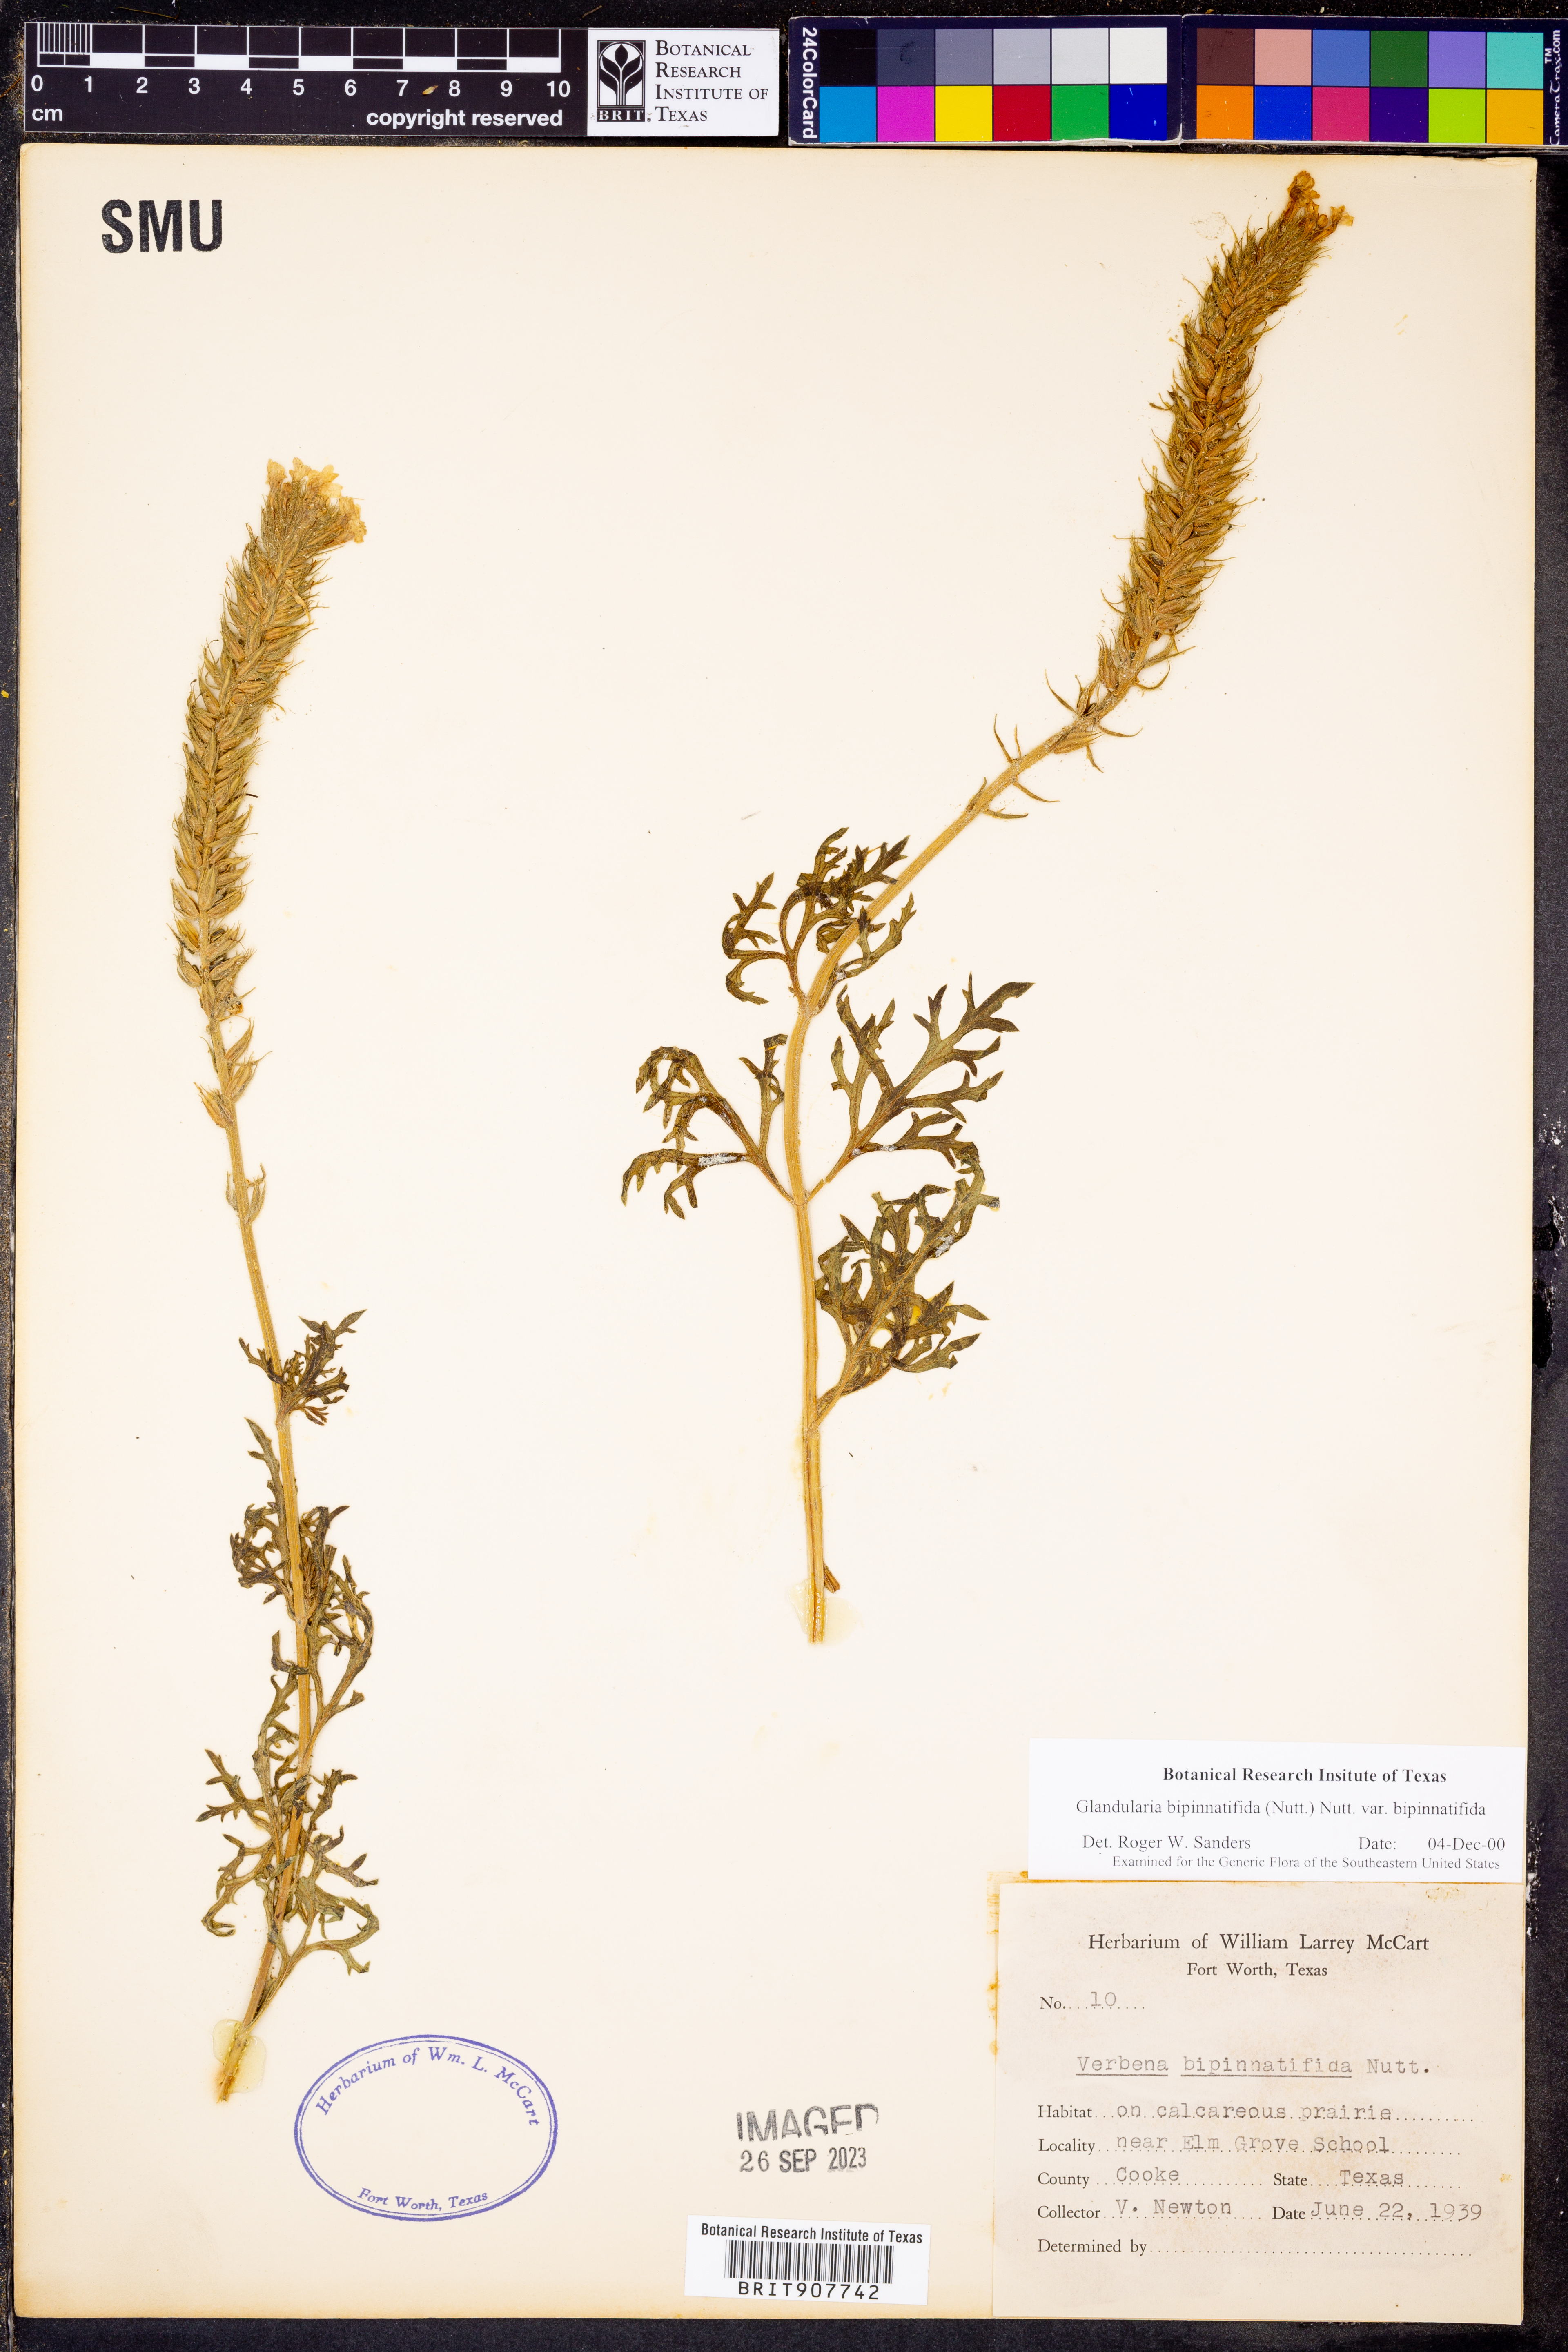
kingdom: Plantae
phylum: Tracheophyta
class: Magnoliopsida
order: Lamiales
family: Verbenaceae
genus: Verbena
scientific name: Verbena bipinnatifida
